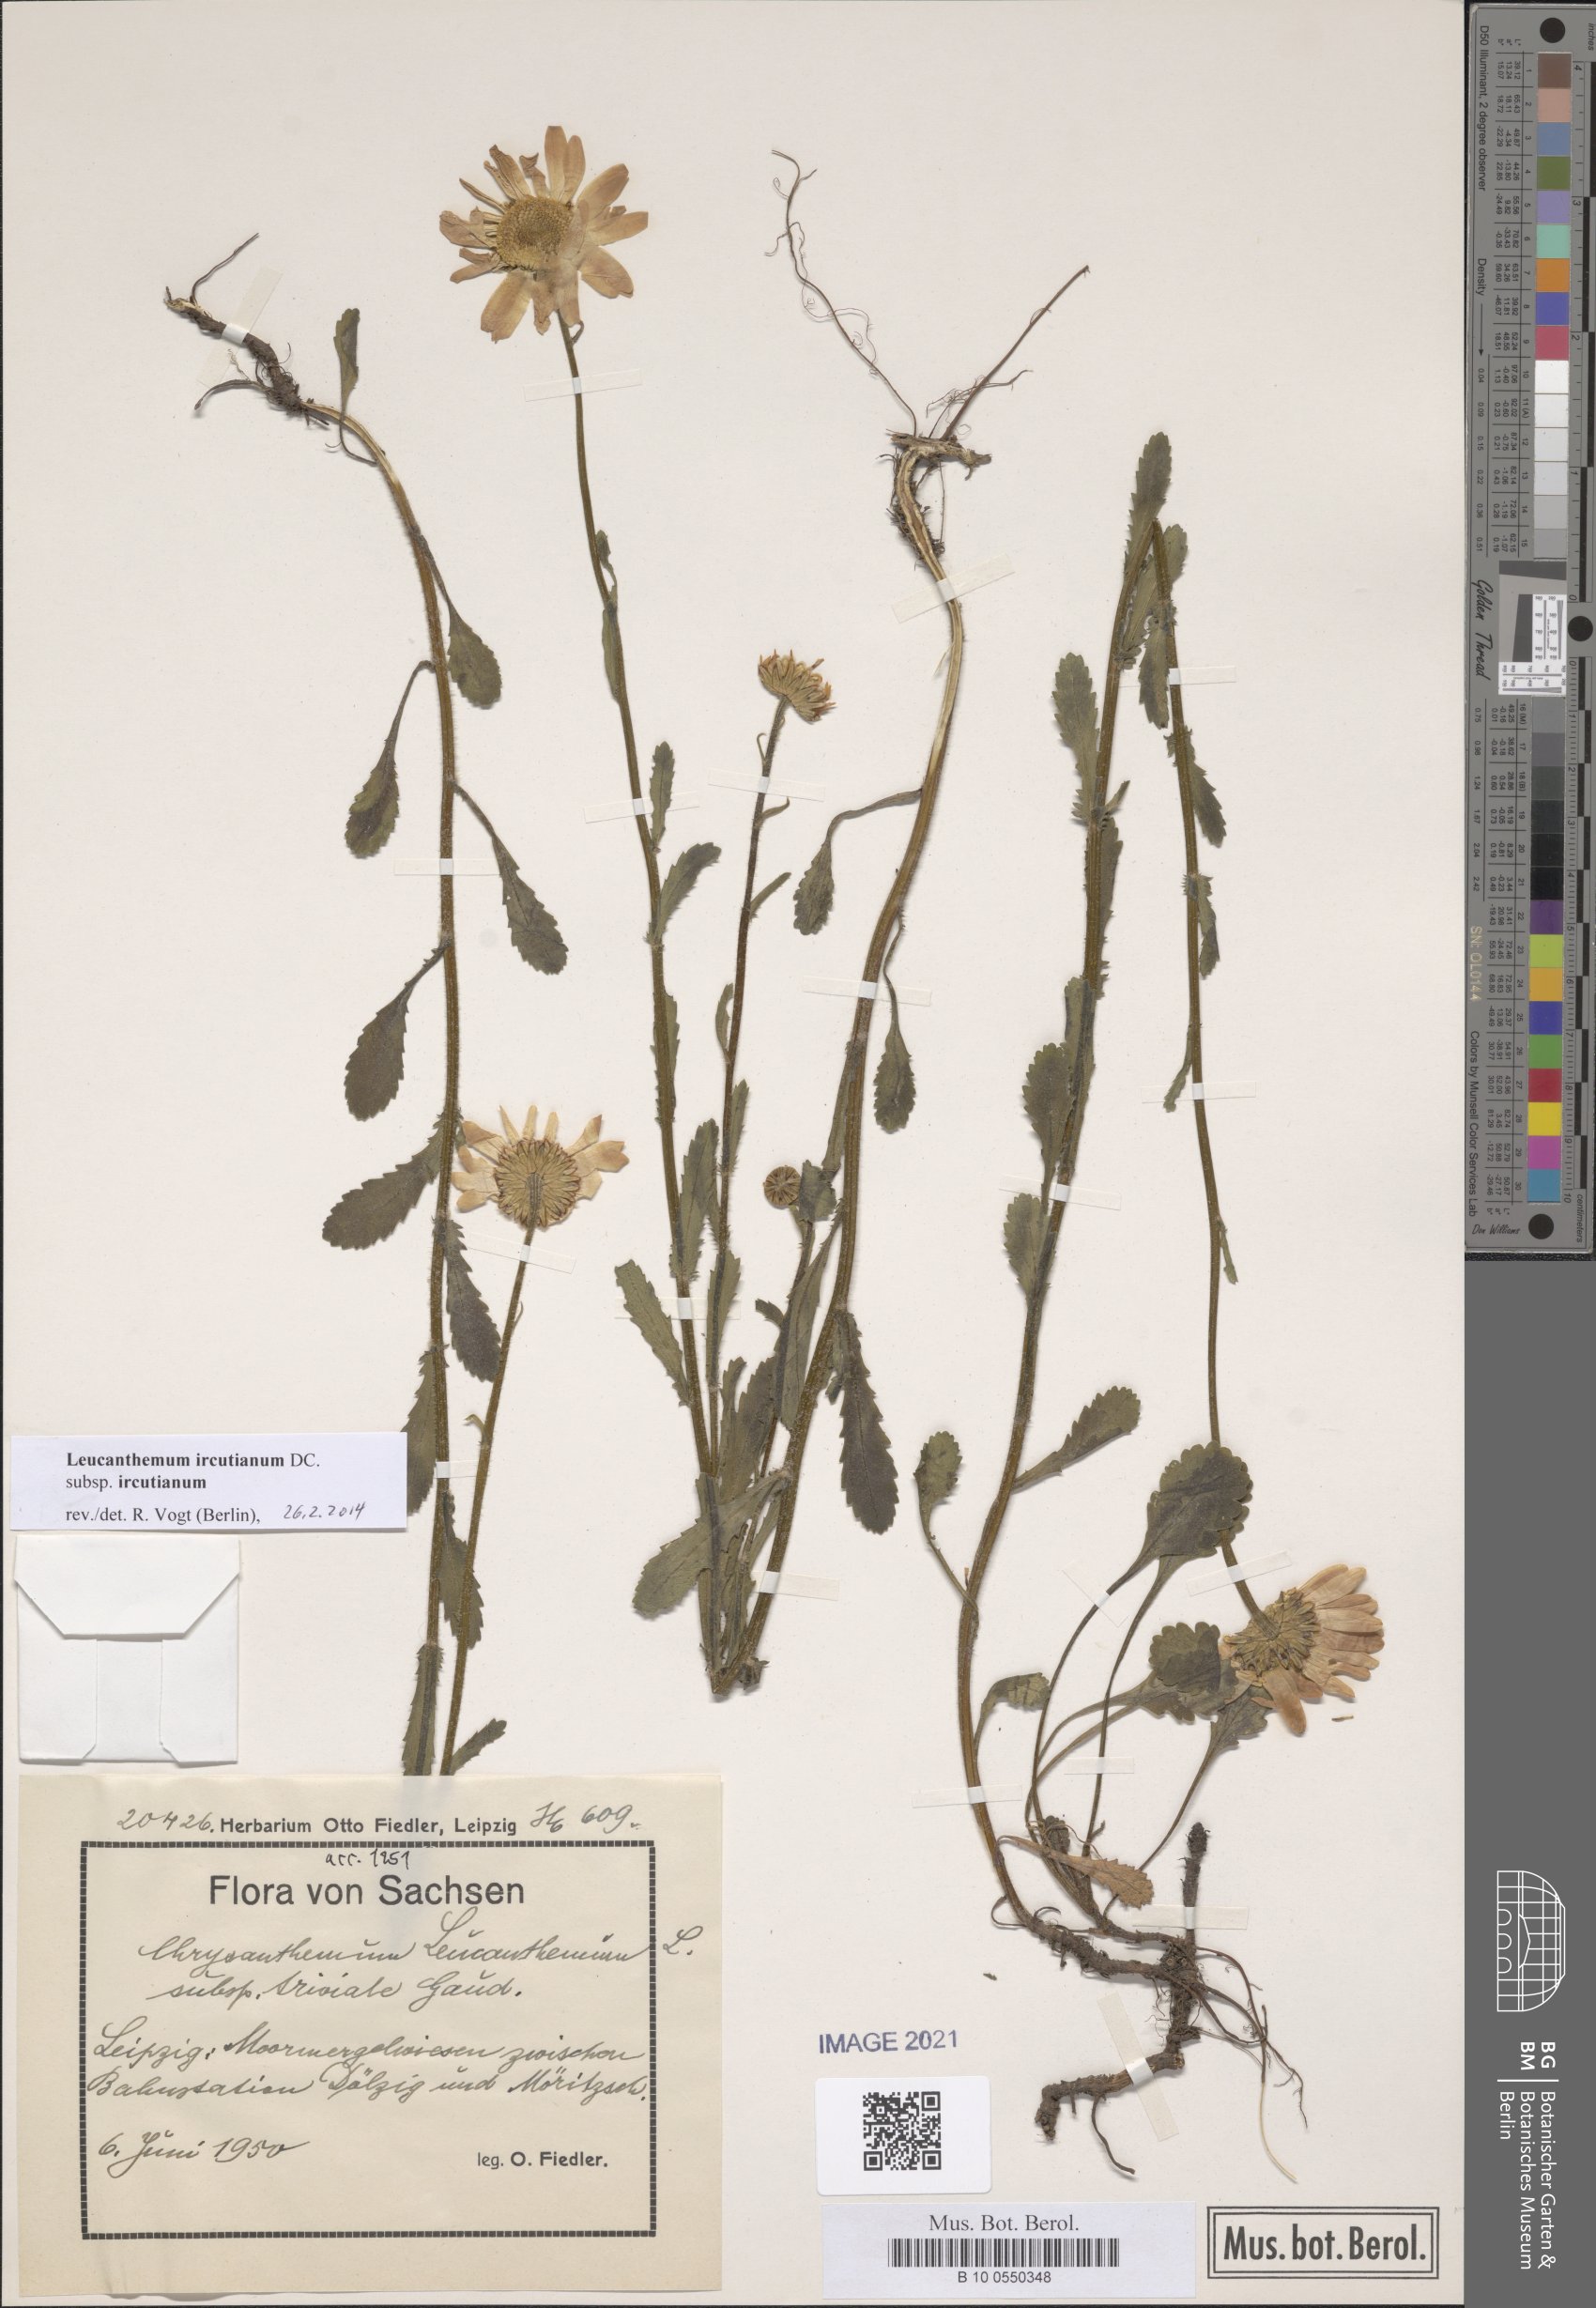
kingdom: Plantae
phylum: Tracheophyta
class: Magnoliopsida
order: Asterales
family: Asteraceae
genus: Leucanthemum
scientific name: Leucanthemum ircutianum
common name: Daisy
